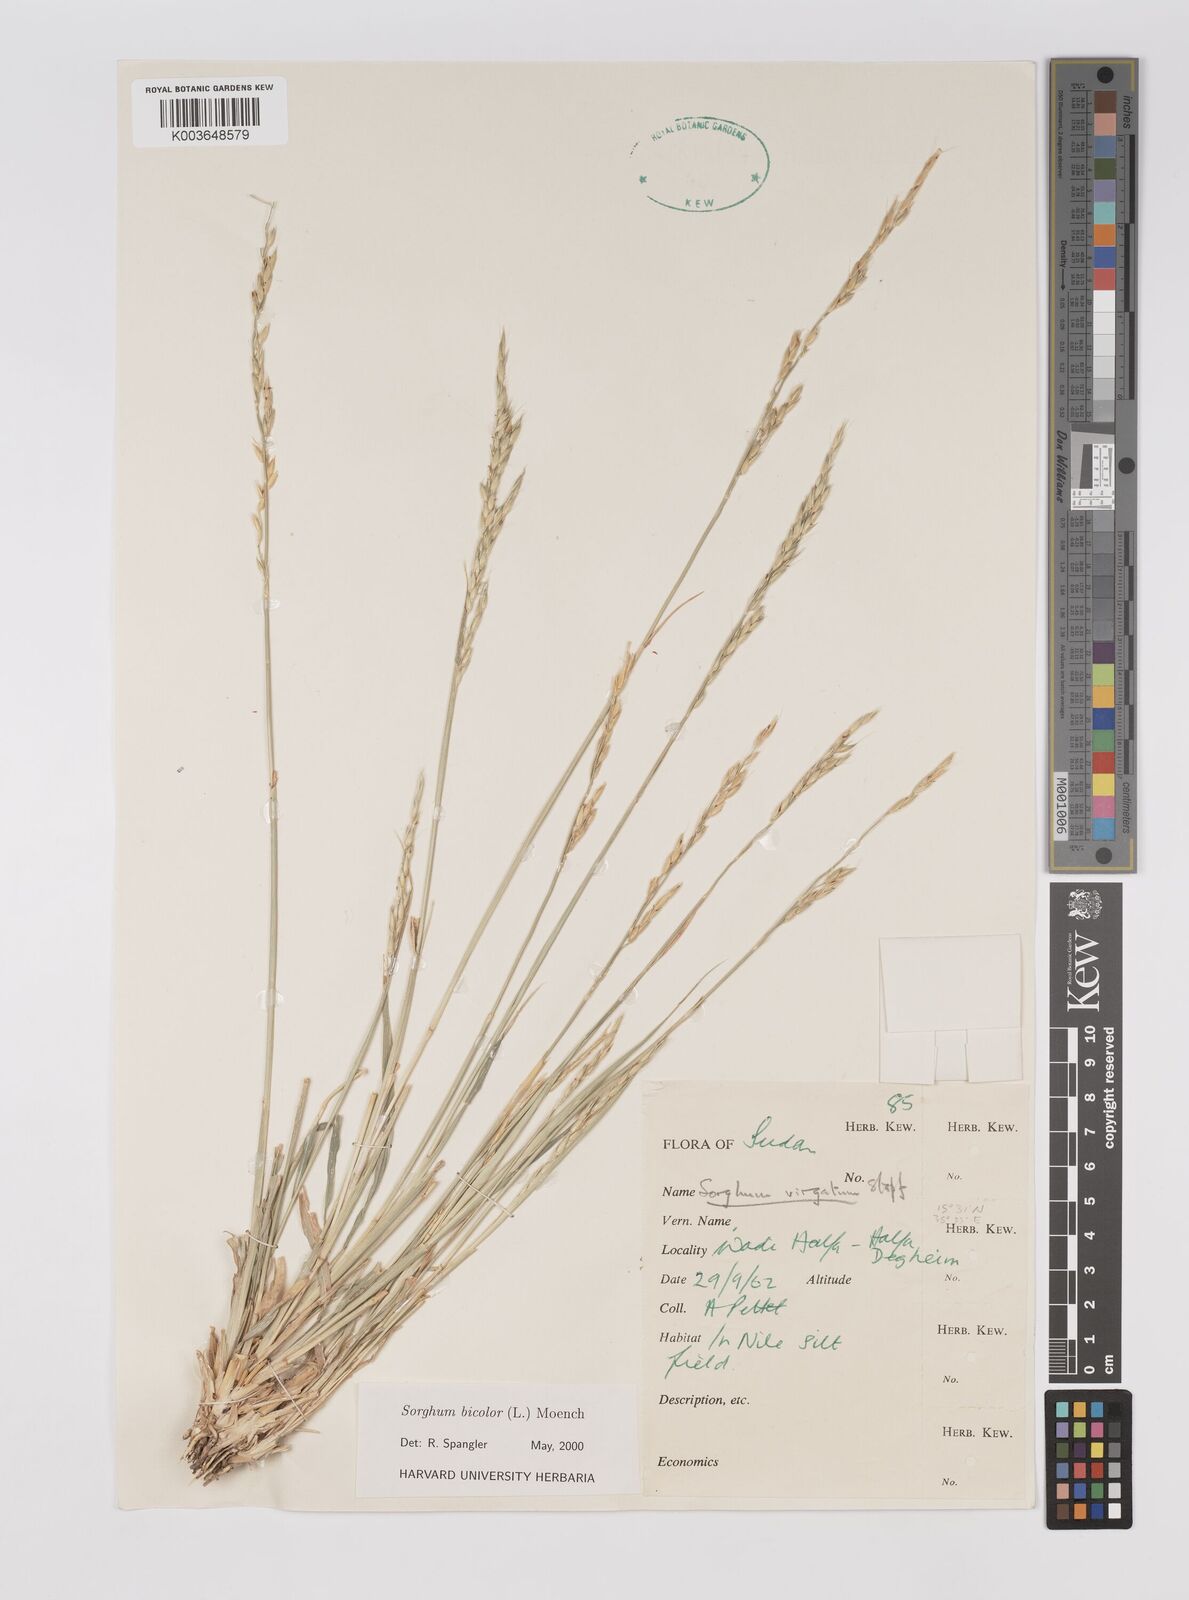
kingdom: Plantae
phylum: Tracheophyta
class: Liliopsida
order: Poales
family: Poaceae
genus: Hyparrhenia
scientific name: Hyparrhenia dichroa
